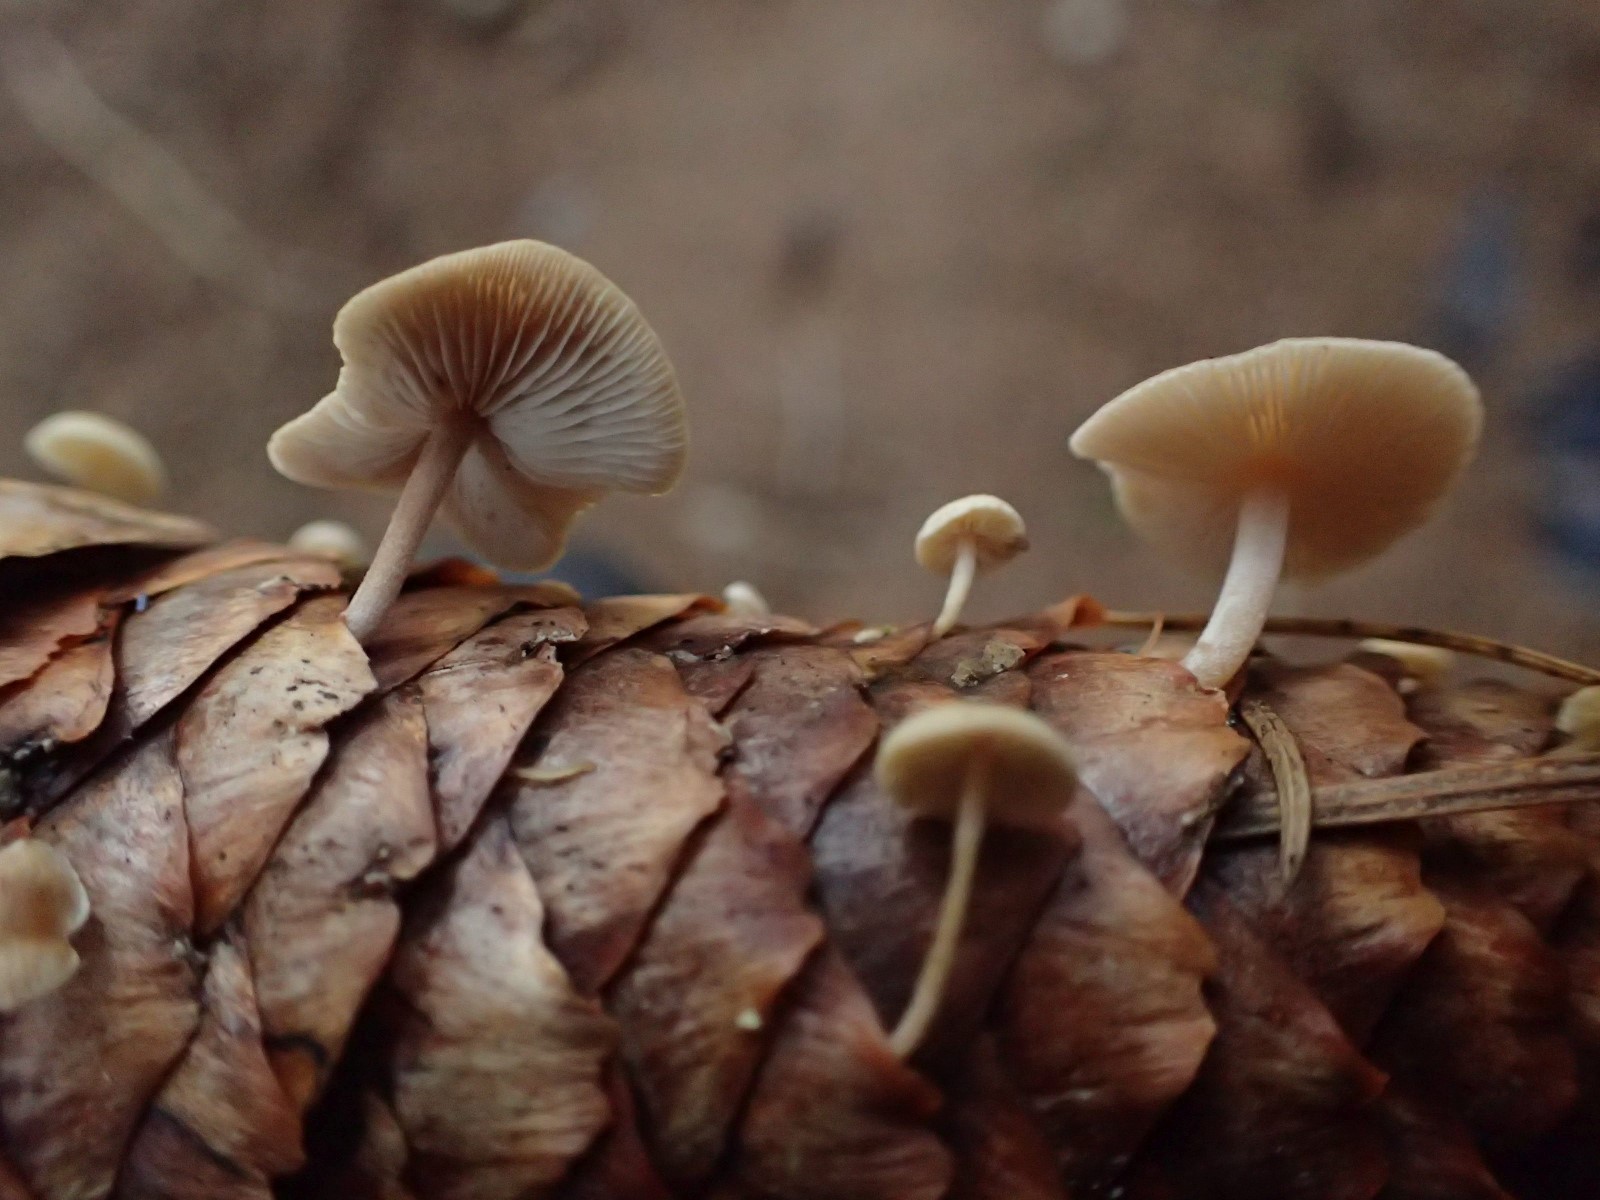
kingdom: Fungi
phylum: Basidiomycota
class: Agaricomycetes
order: Agaricales
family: Marasmiaceae
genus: Baeospora
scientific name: Baeospora myosura
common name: koglebruskhat
